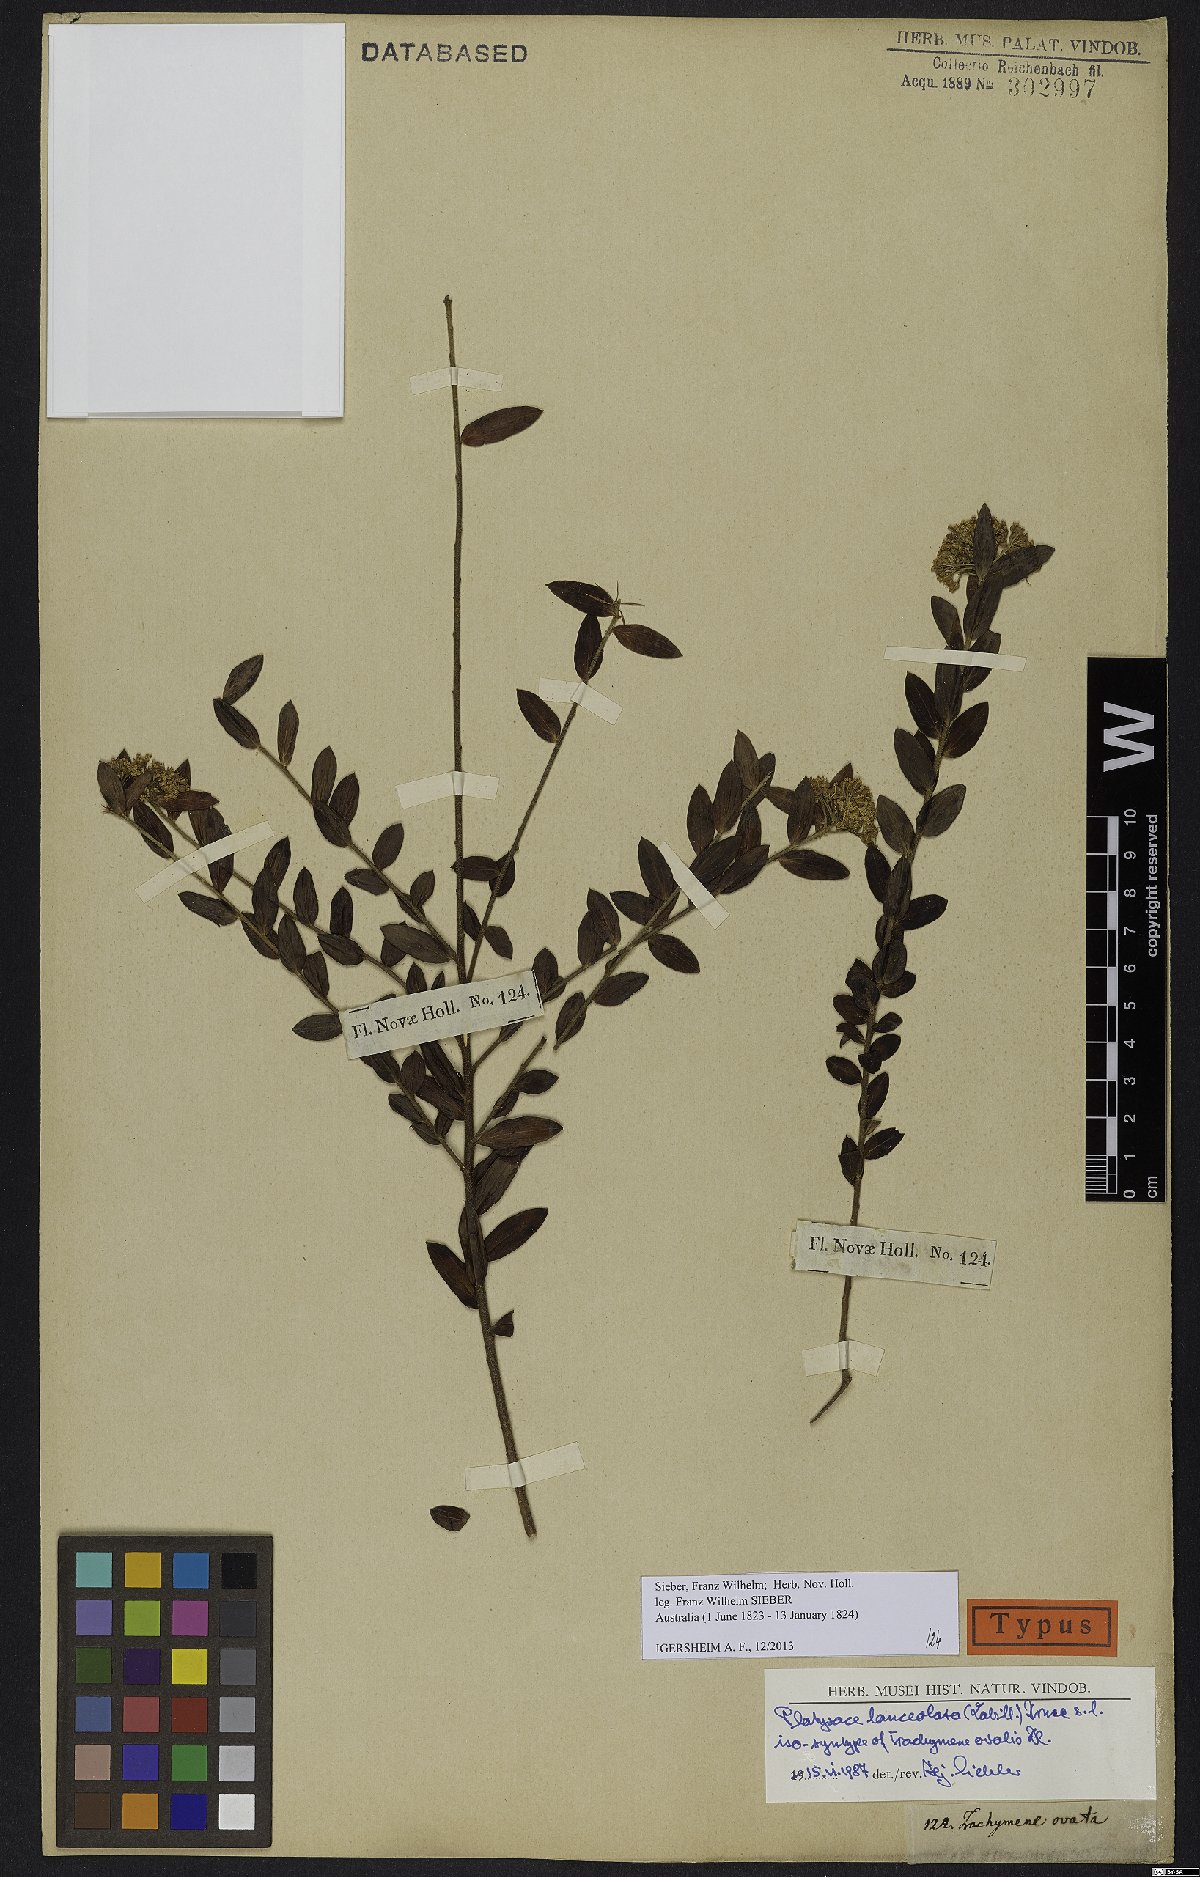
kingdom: Plantae
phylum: Tracheophyta
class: Magnoliopsida
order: Apiales
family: Apiaceae
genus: Platysace
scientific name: Platysace lanceolata
